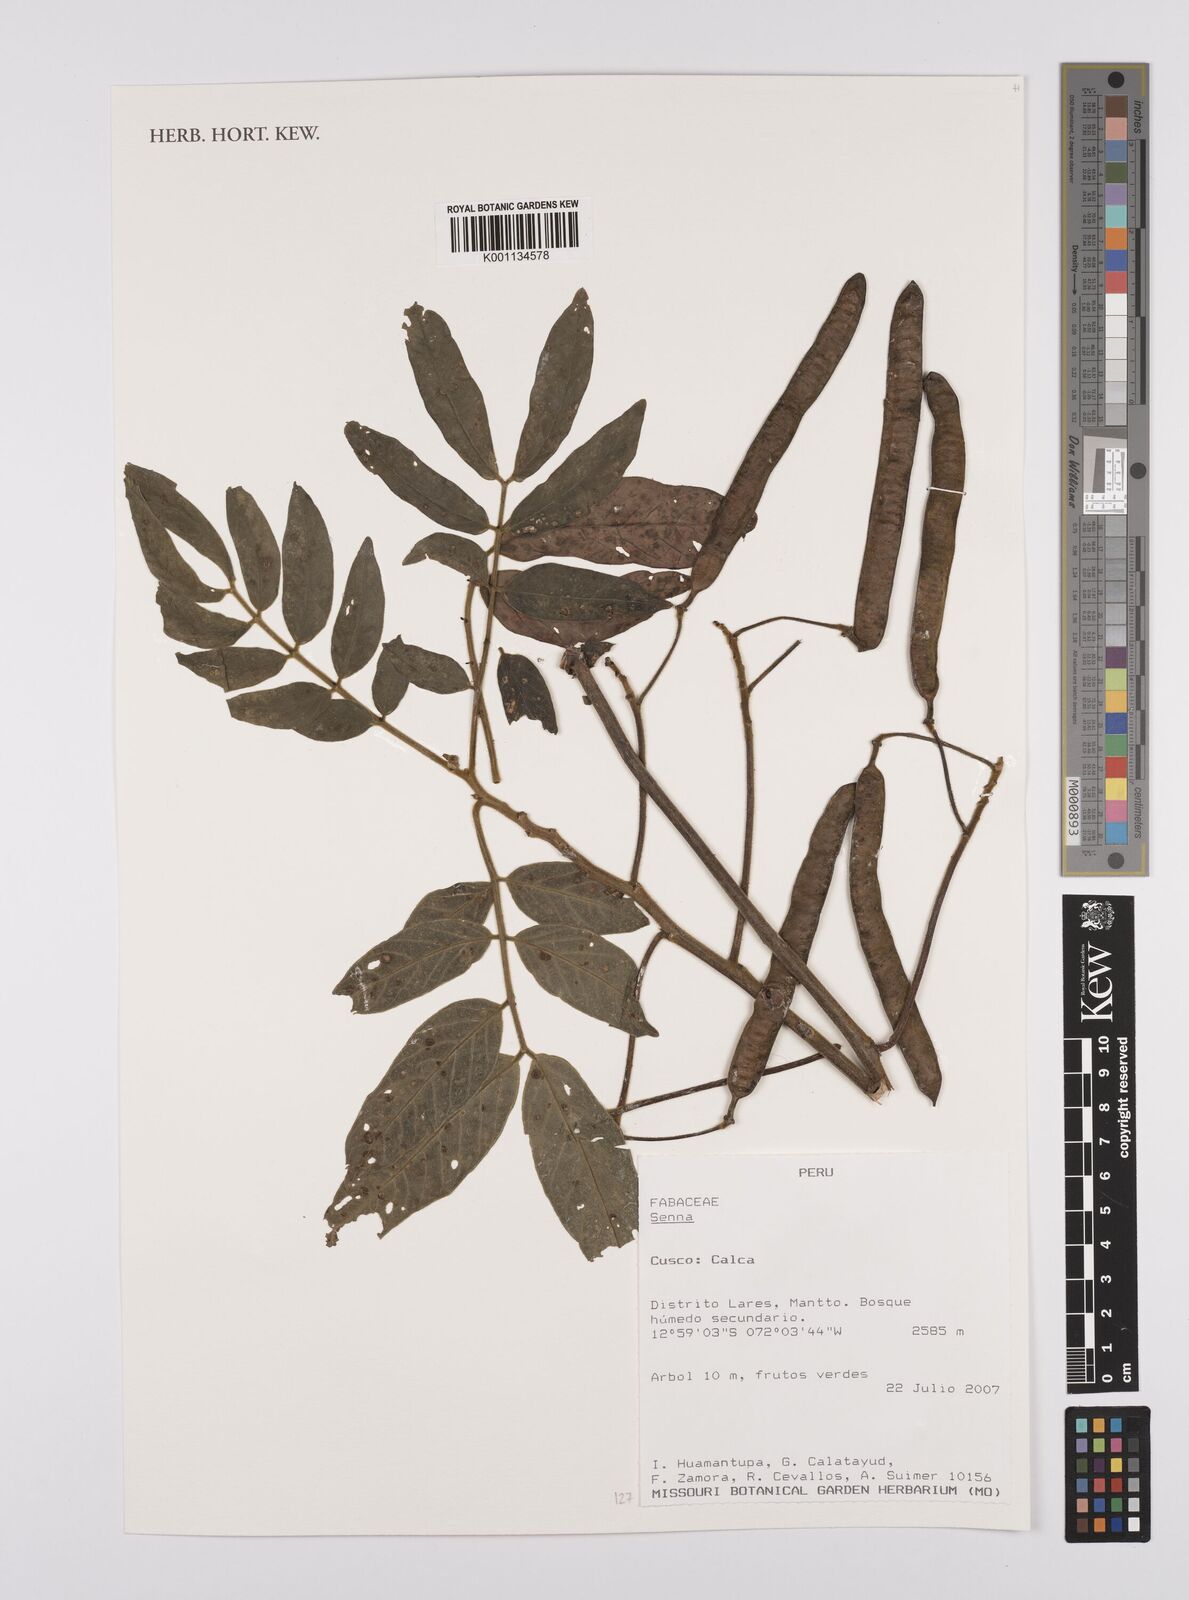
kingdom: Plantae
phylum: Tracheophyta
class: Magnoliopsida
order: Fabales
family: Fabaceae
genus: Senna
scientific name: Senna
